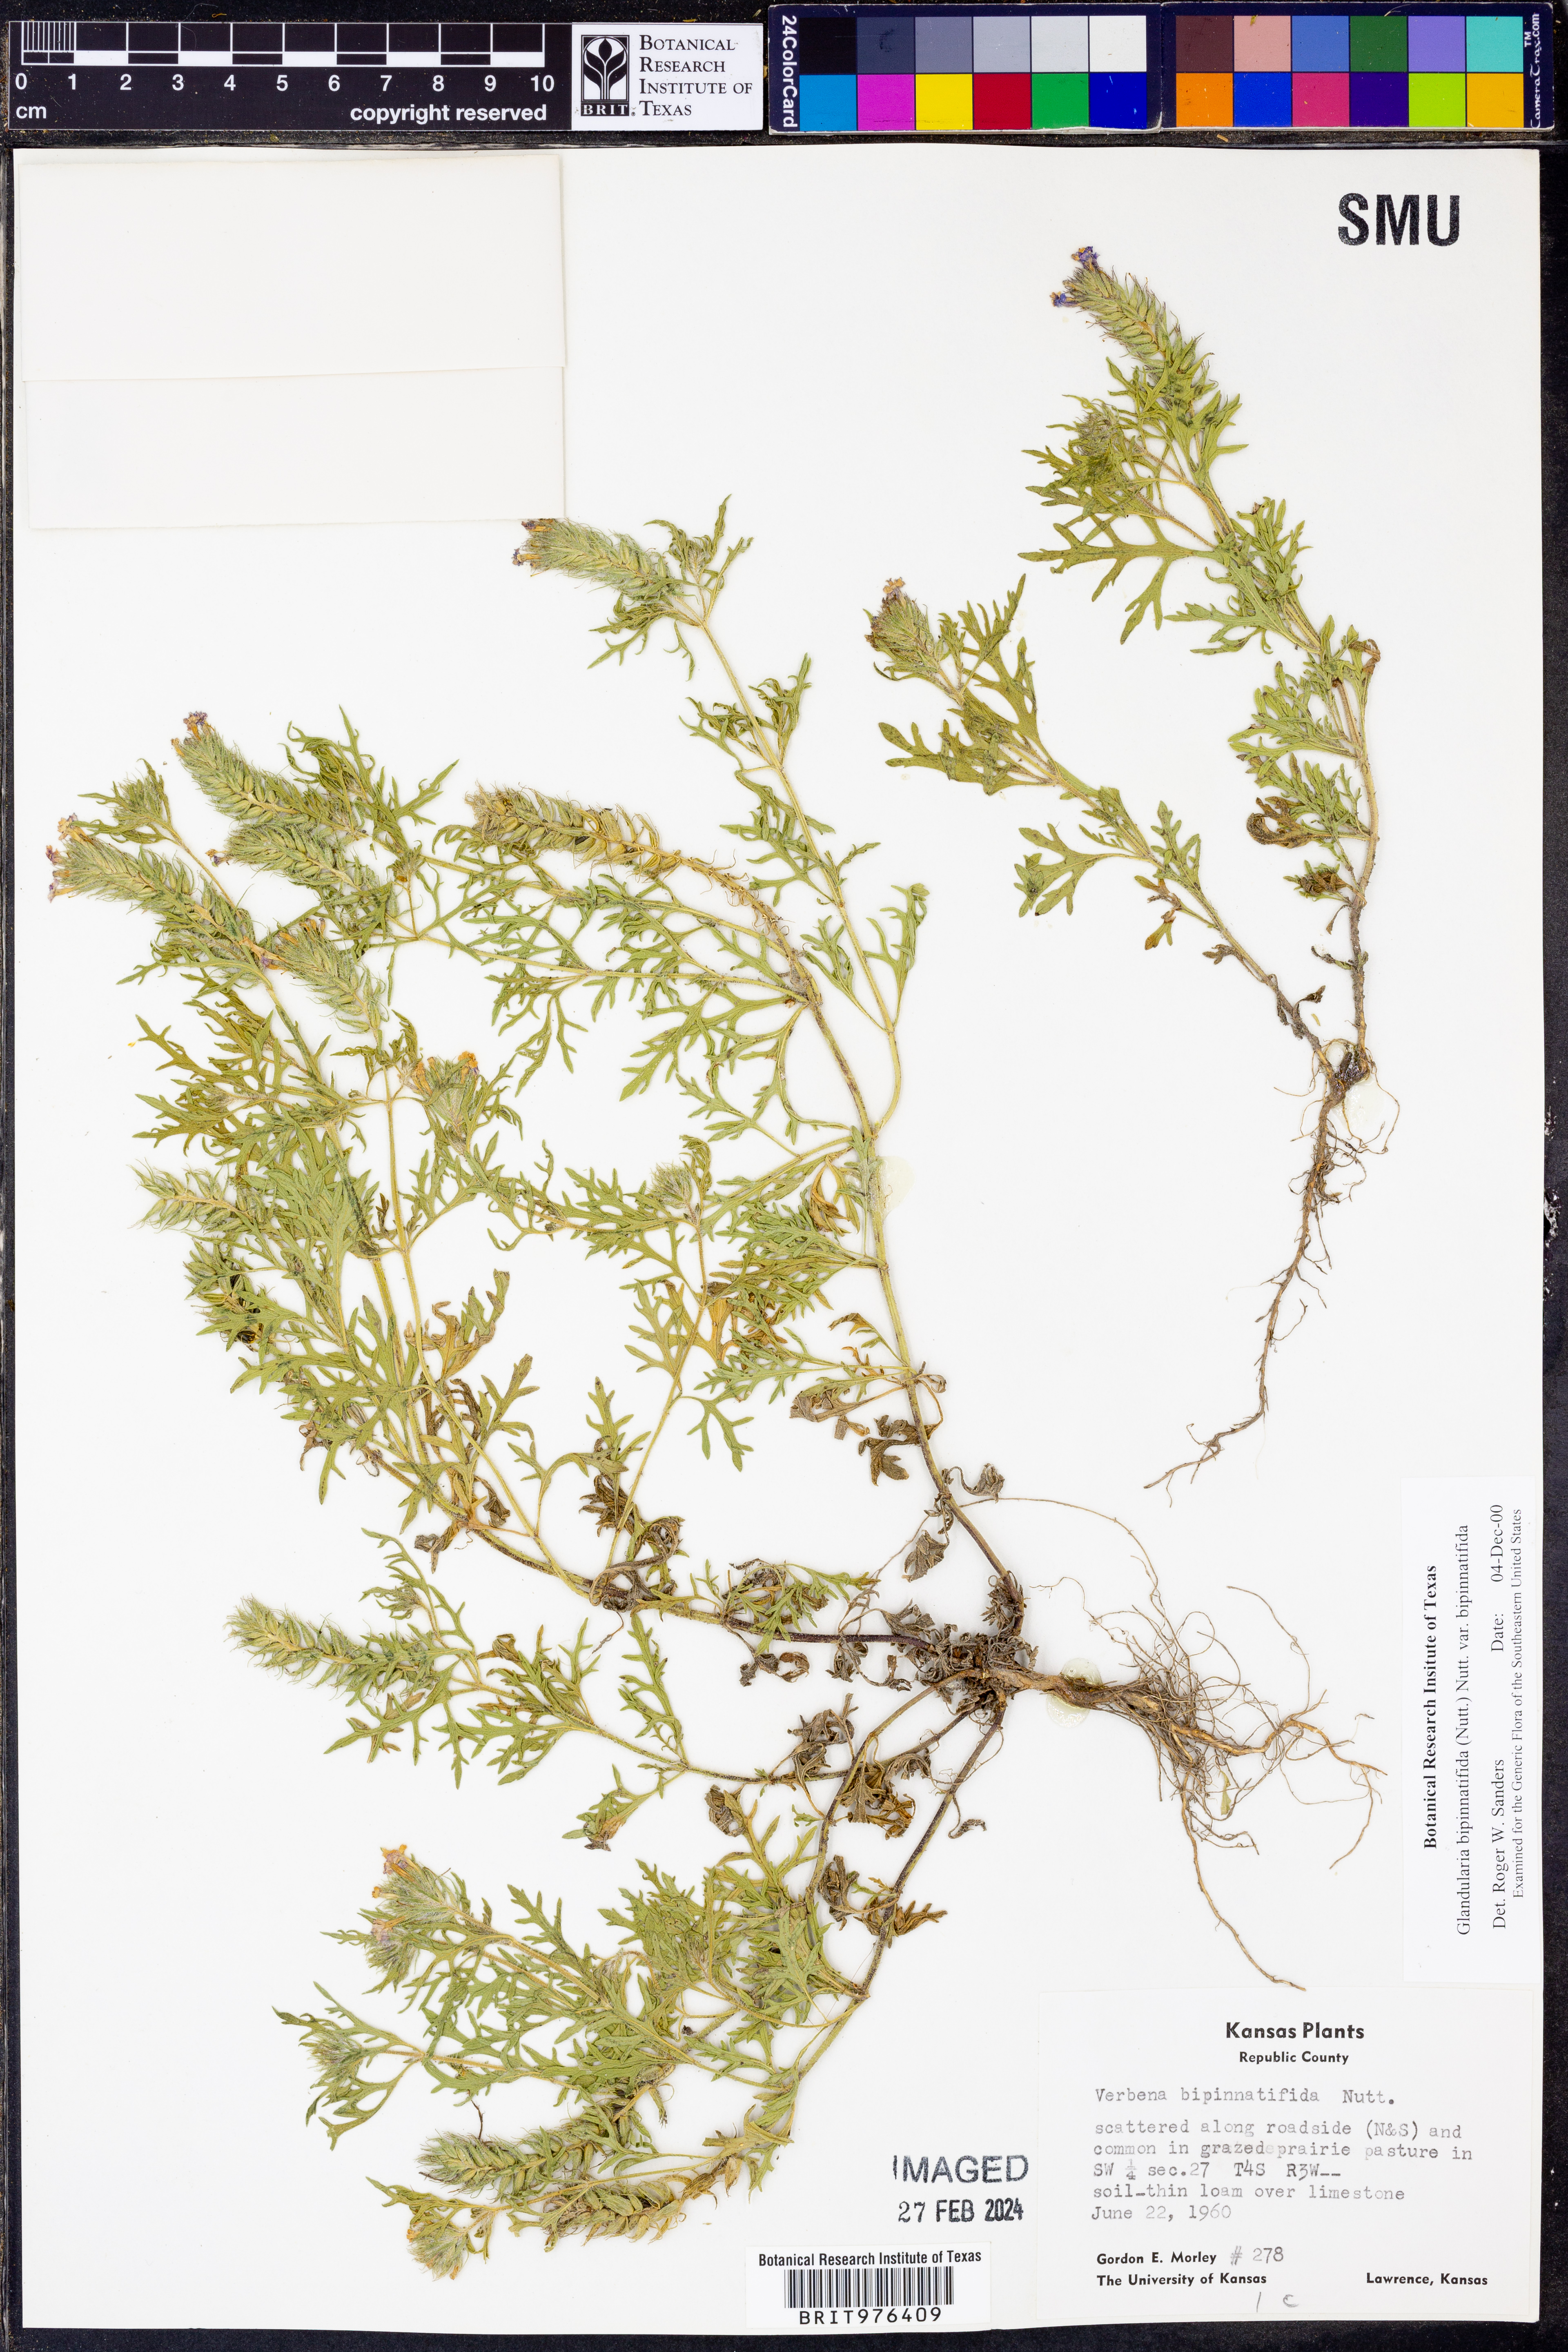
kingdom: Plantae
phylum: Tracheophyta
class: Magnoliopsida
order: Lamiales
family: Verbenaceae
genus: Verbena
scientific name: Verbena bipinnatifida
